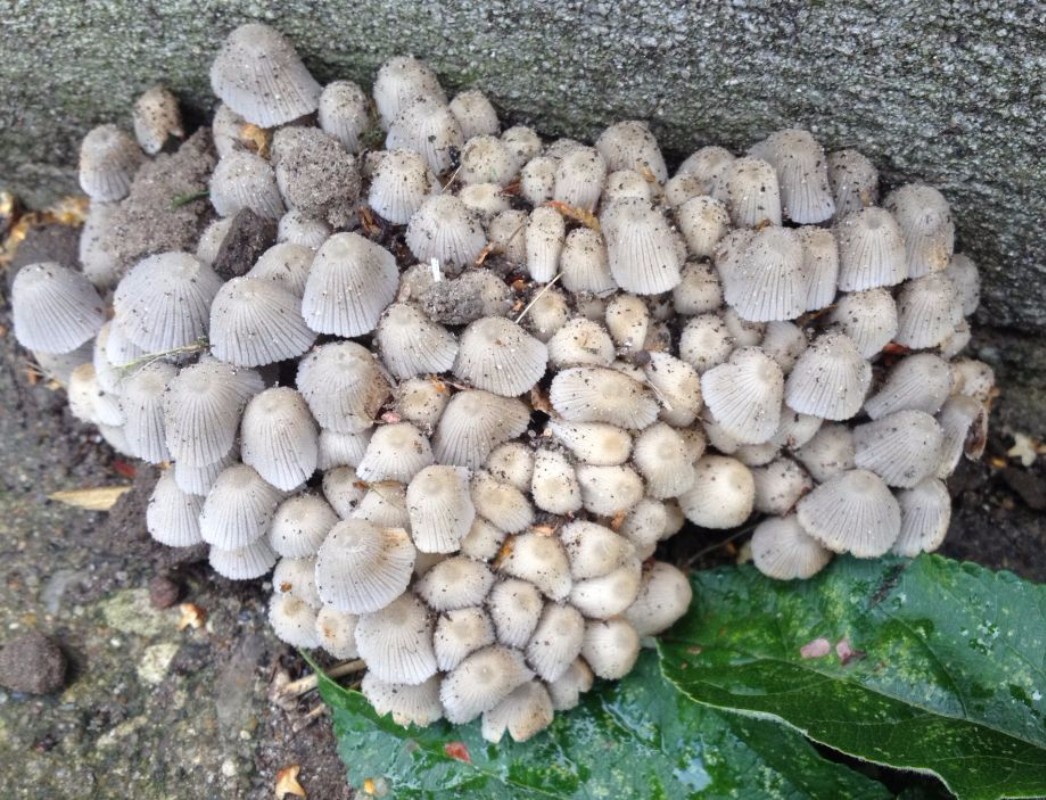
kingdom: Fungi
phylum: Basidiomycota
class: Agaricomycetes
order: Agaricales
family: Psathyrellaceae
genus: Coprinellus
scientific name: Coprinellus disseminatus
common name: bredsået blækhat
